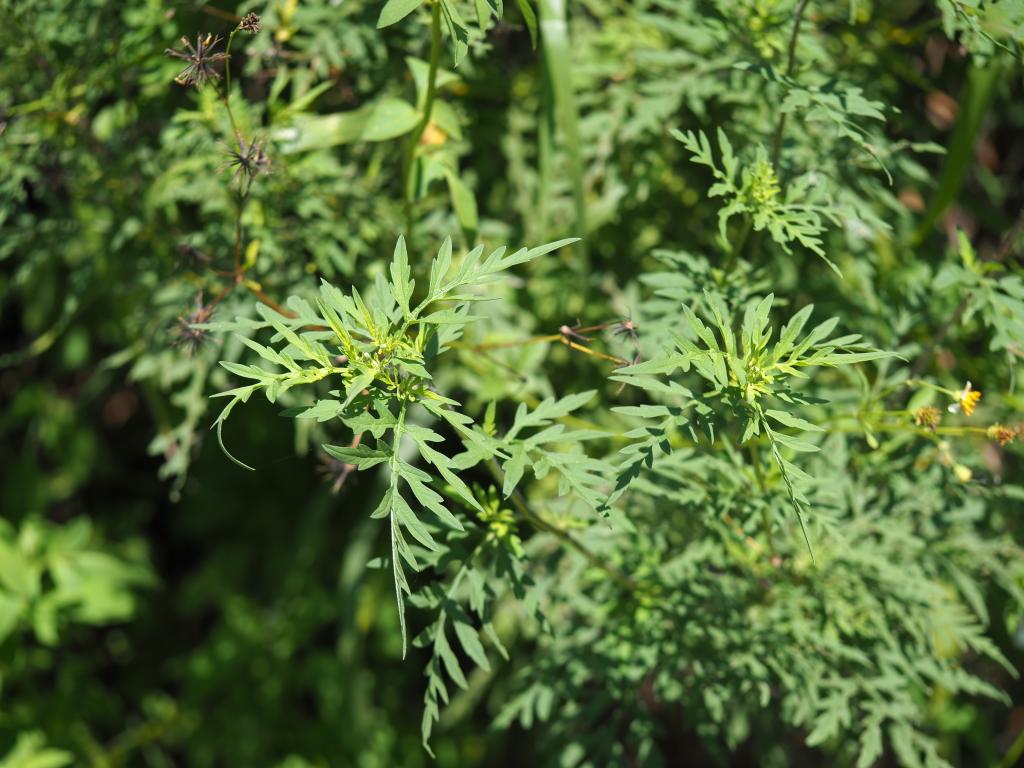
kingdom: Plantae
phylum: Tracheophyta
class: Magnoliopsida
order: Asterales
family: Asteraceae
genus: Ambrosia
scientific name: Ambrosia artemisiifolia
